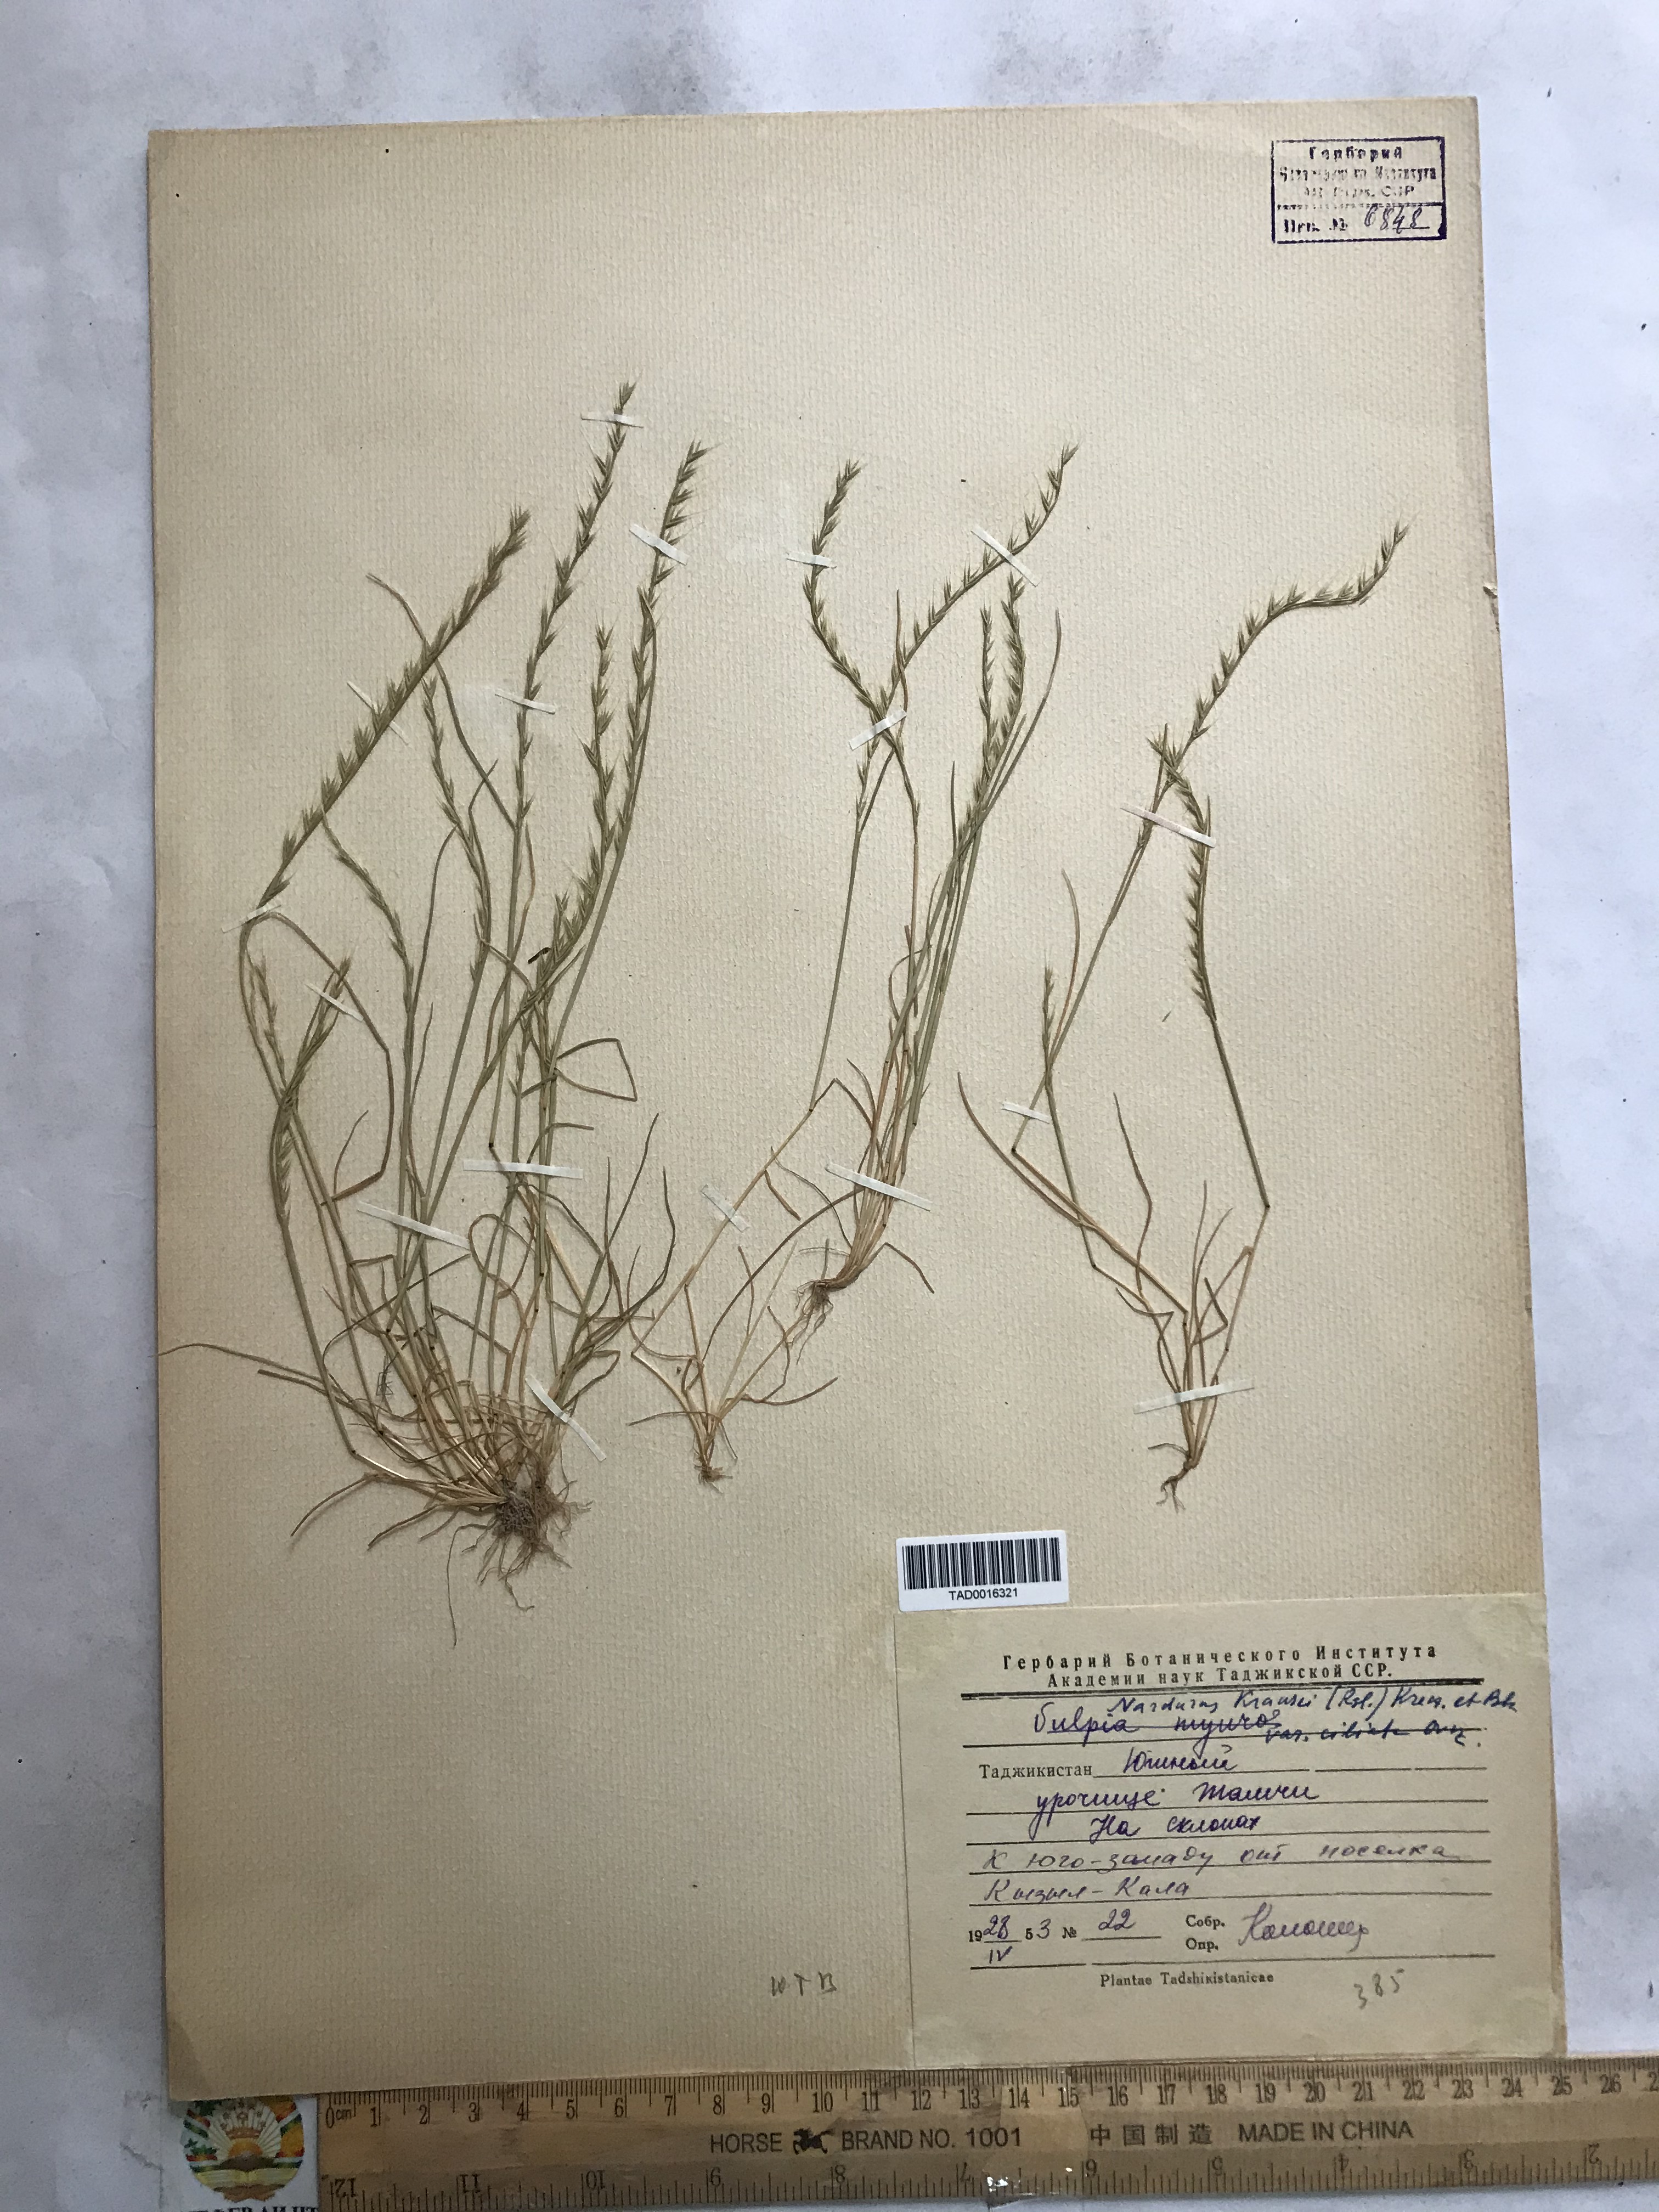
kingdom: Plantae
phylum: Tracheophyta
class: Liliopsida
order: Poales
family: Poaceae
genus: Festuca
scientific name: Festuca maritima
